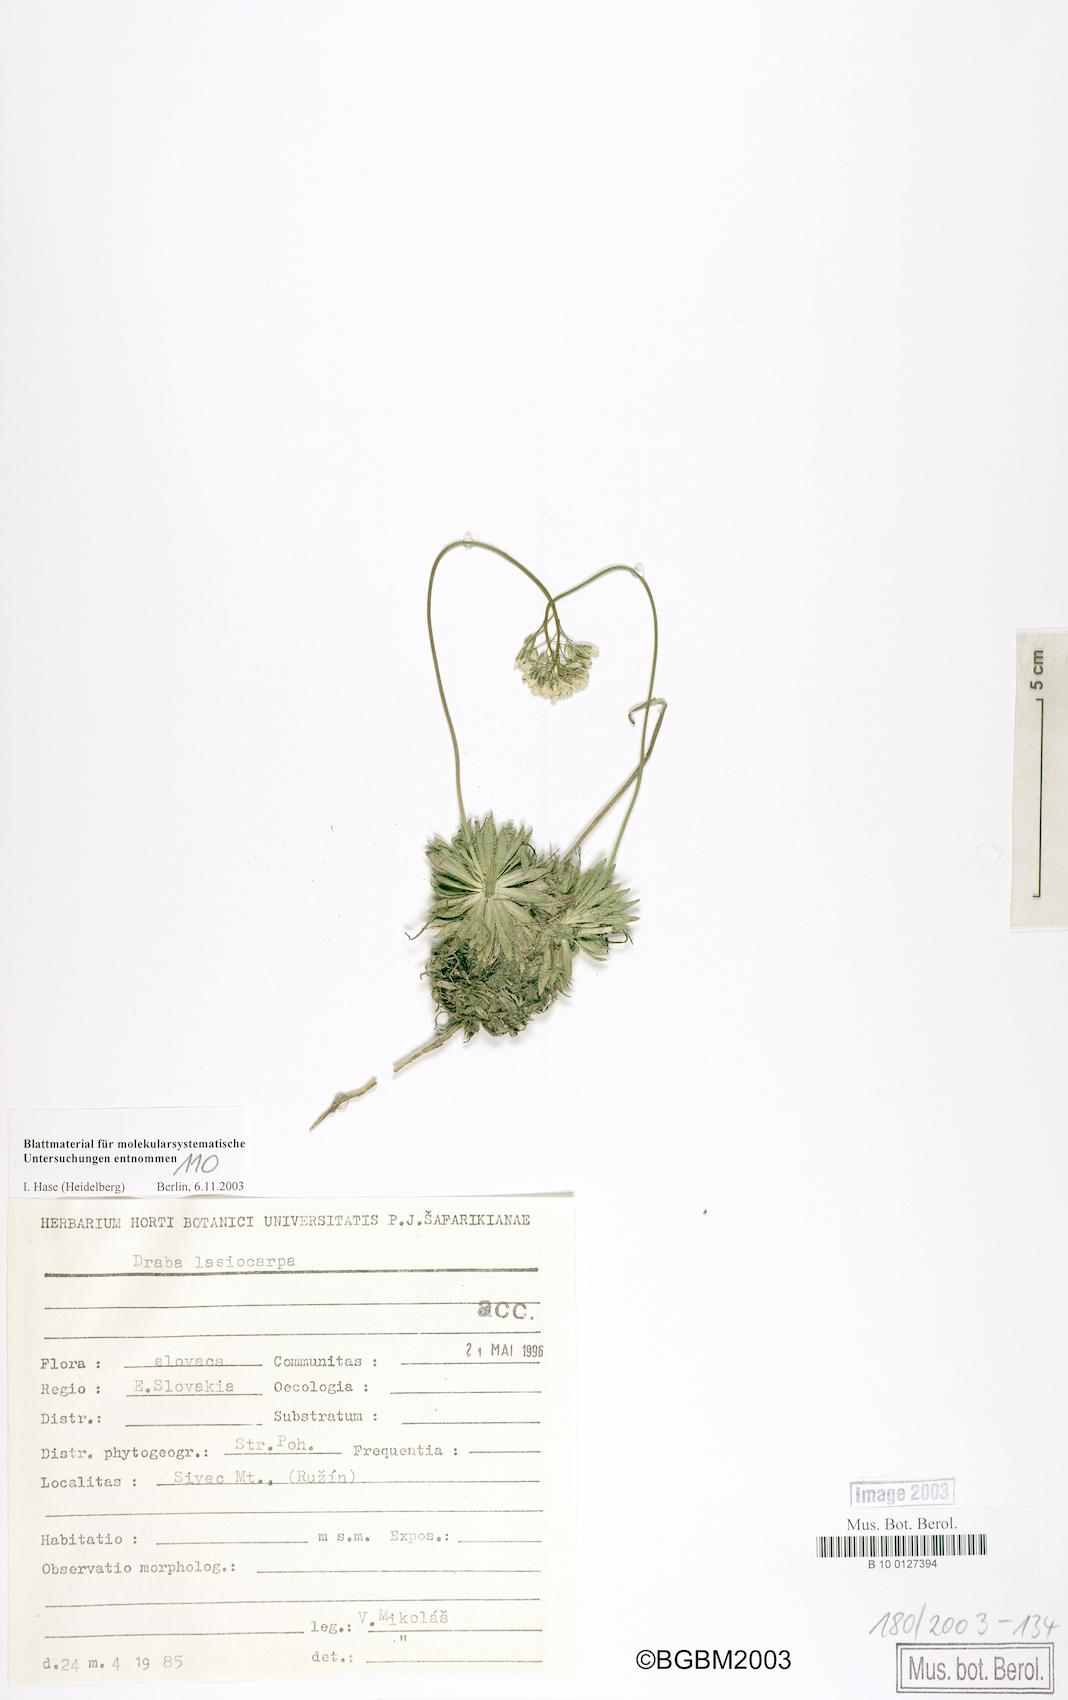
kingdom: Plantae
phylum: Tracheophyta
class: Magnoliopsida
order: Brassicales
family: Brassicaceae
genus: Draba
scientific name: Draba lasiocarpa
